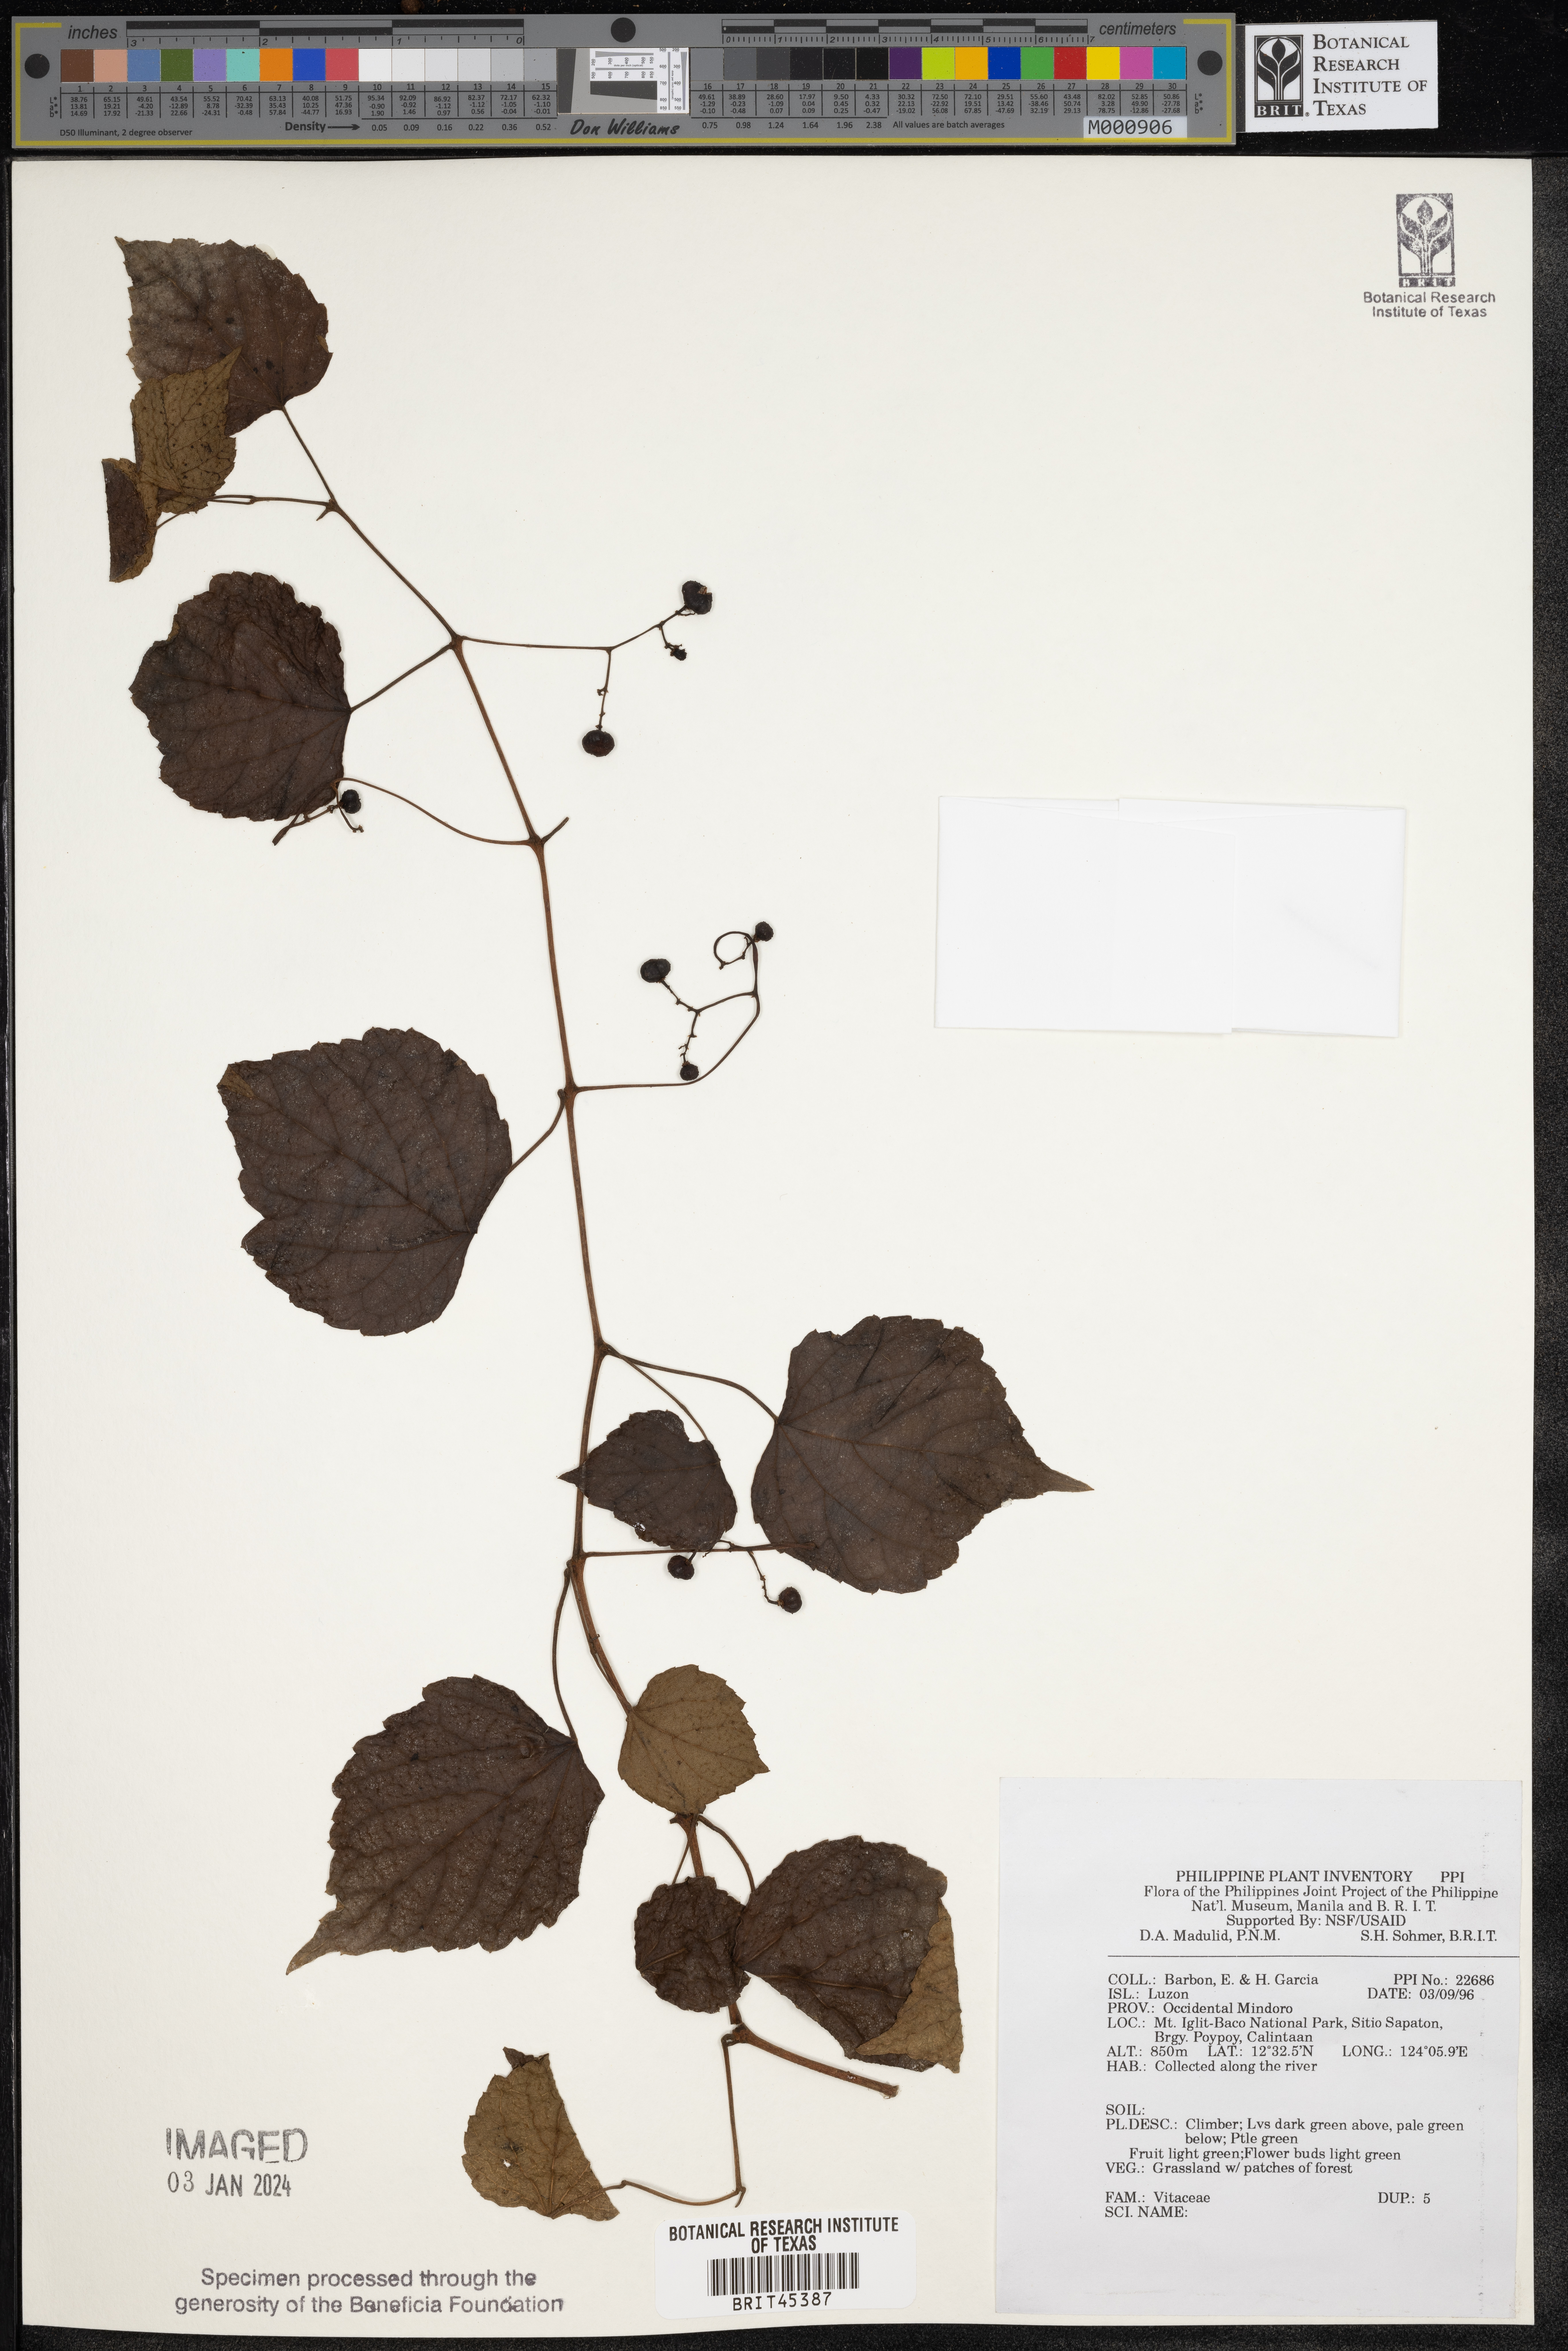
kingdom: Plantae
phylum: Tracheophyta
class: Magnoliopsida
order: Vitales
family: Vitaceae
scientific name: Vitaceae
